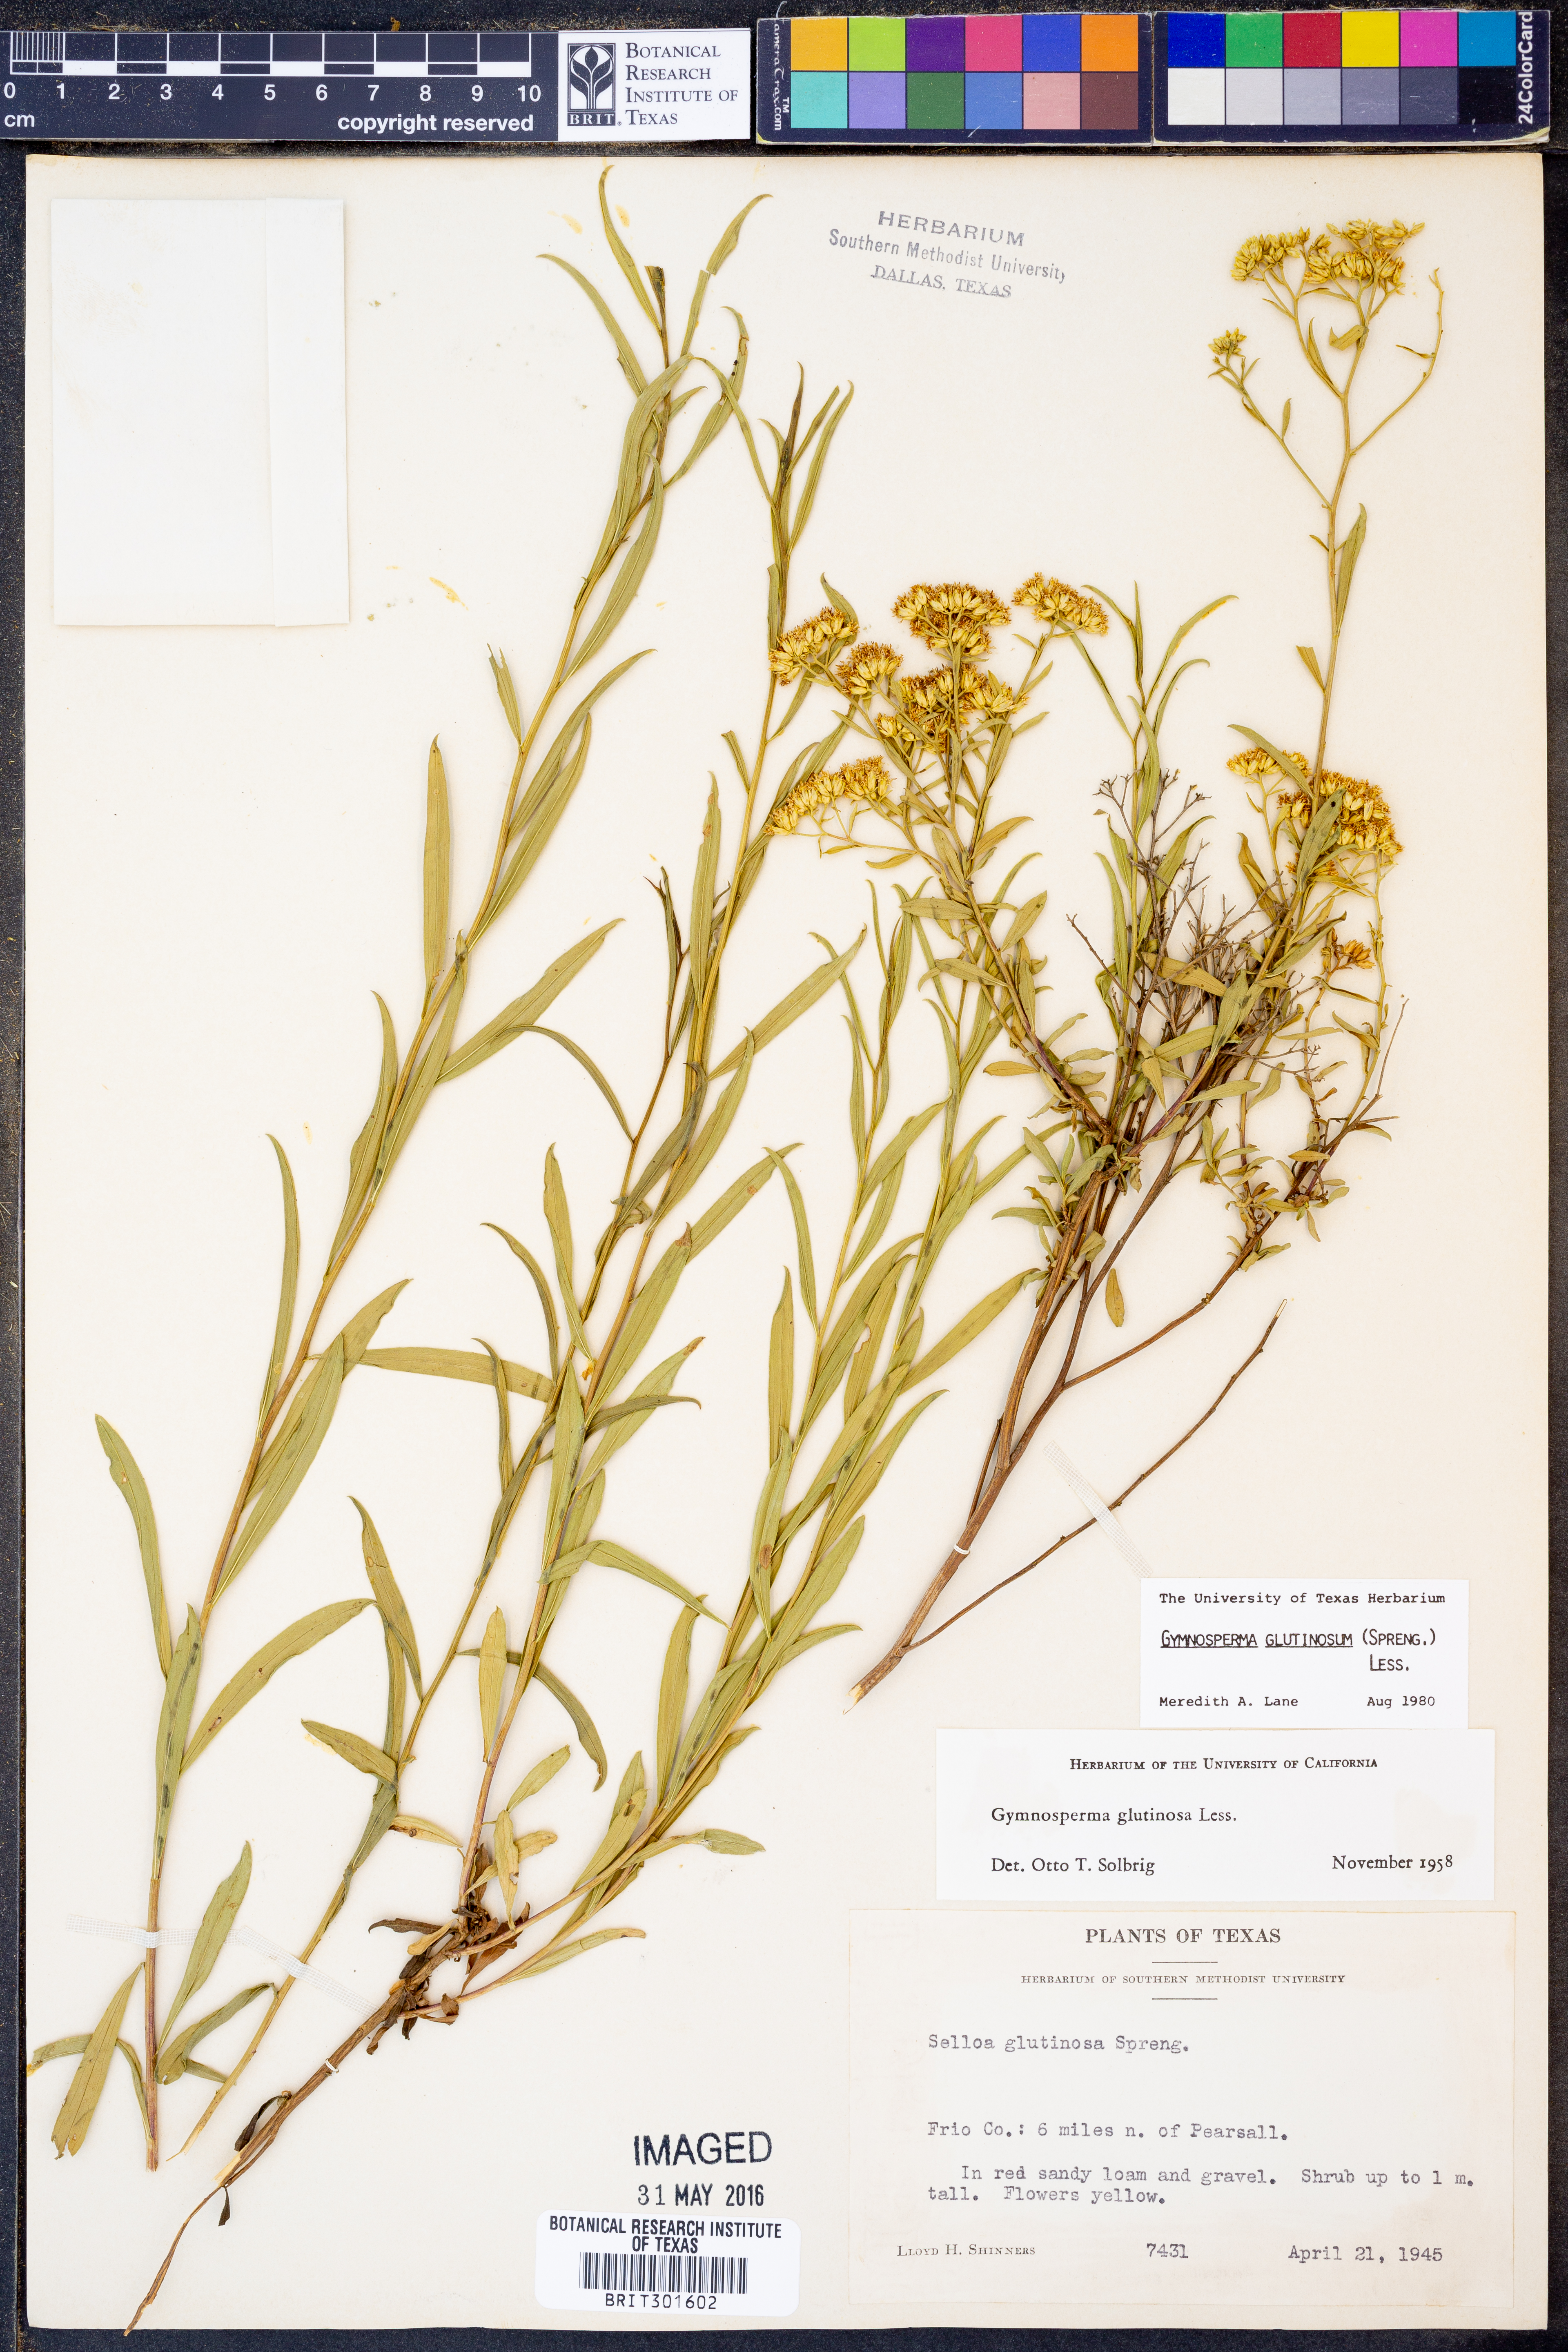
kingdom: Plantae
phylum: Tracheophyta
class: Magnoliopsida
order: Asterales
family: Asteraceae
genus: Gymnosperma
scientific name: Gymnosperma glutinosum
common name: Gumhead
